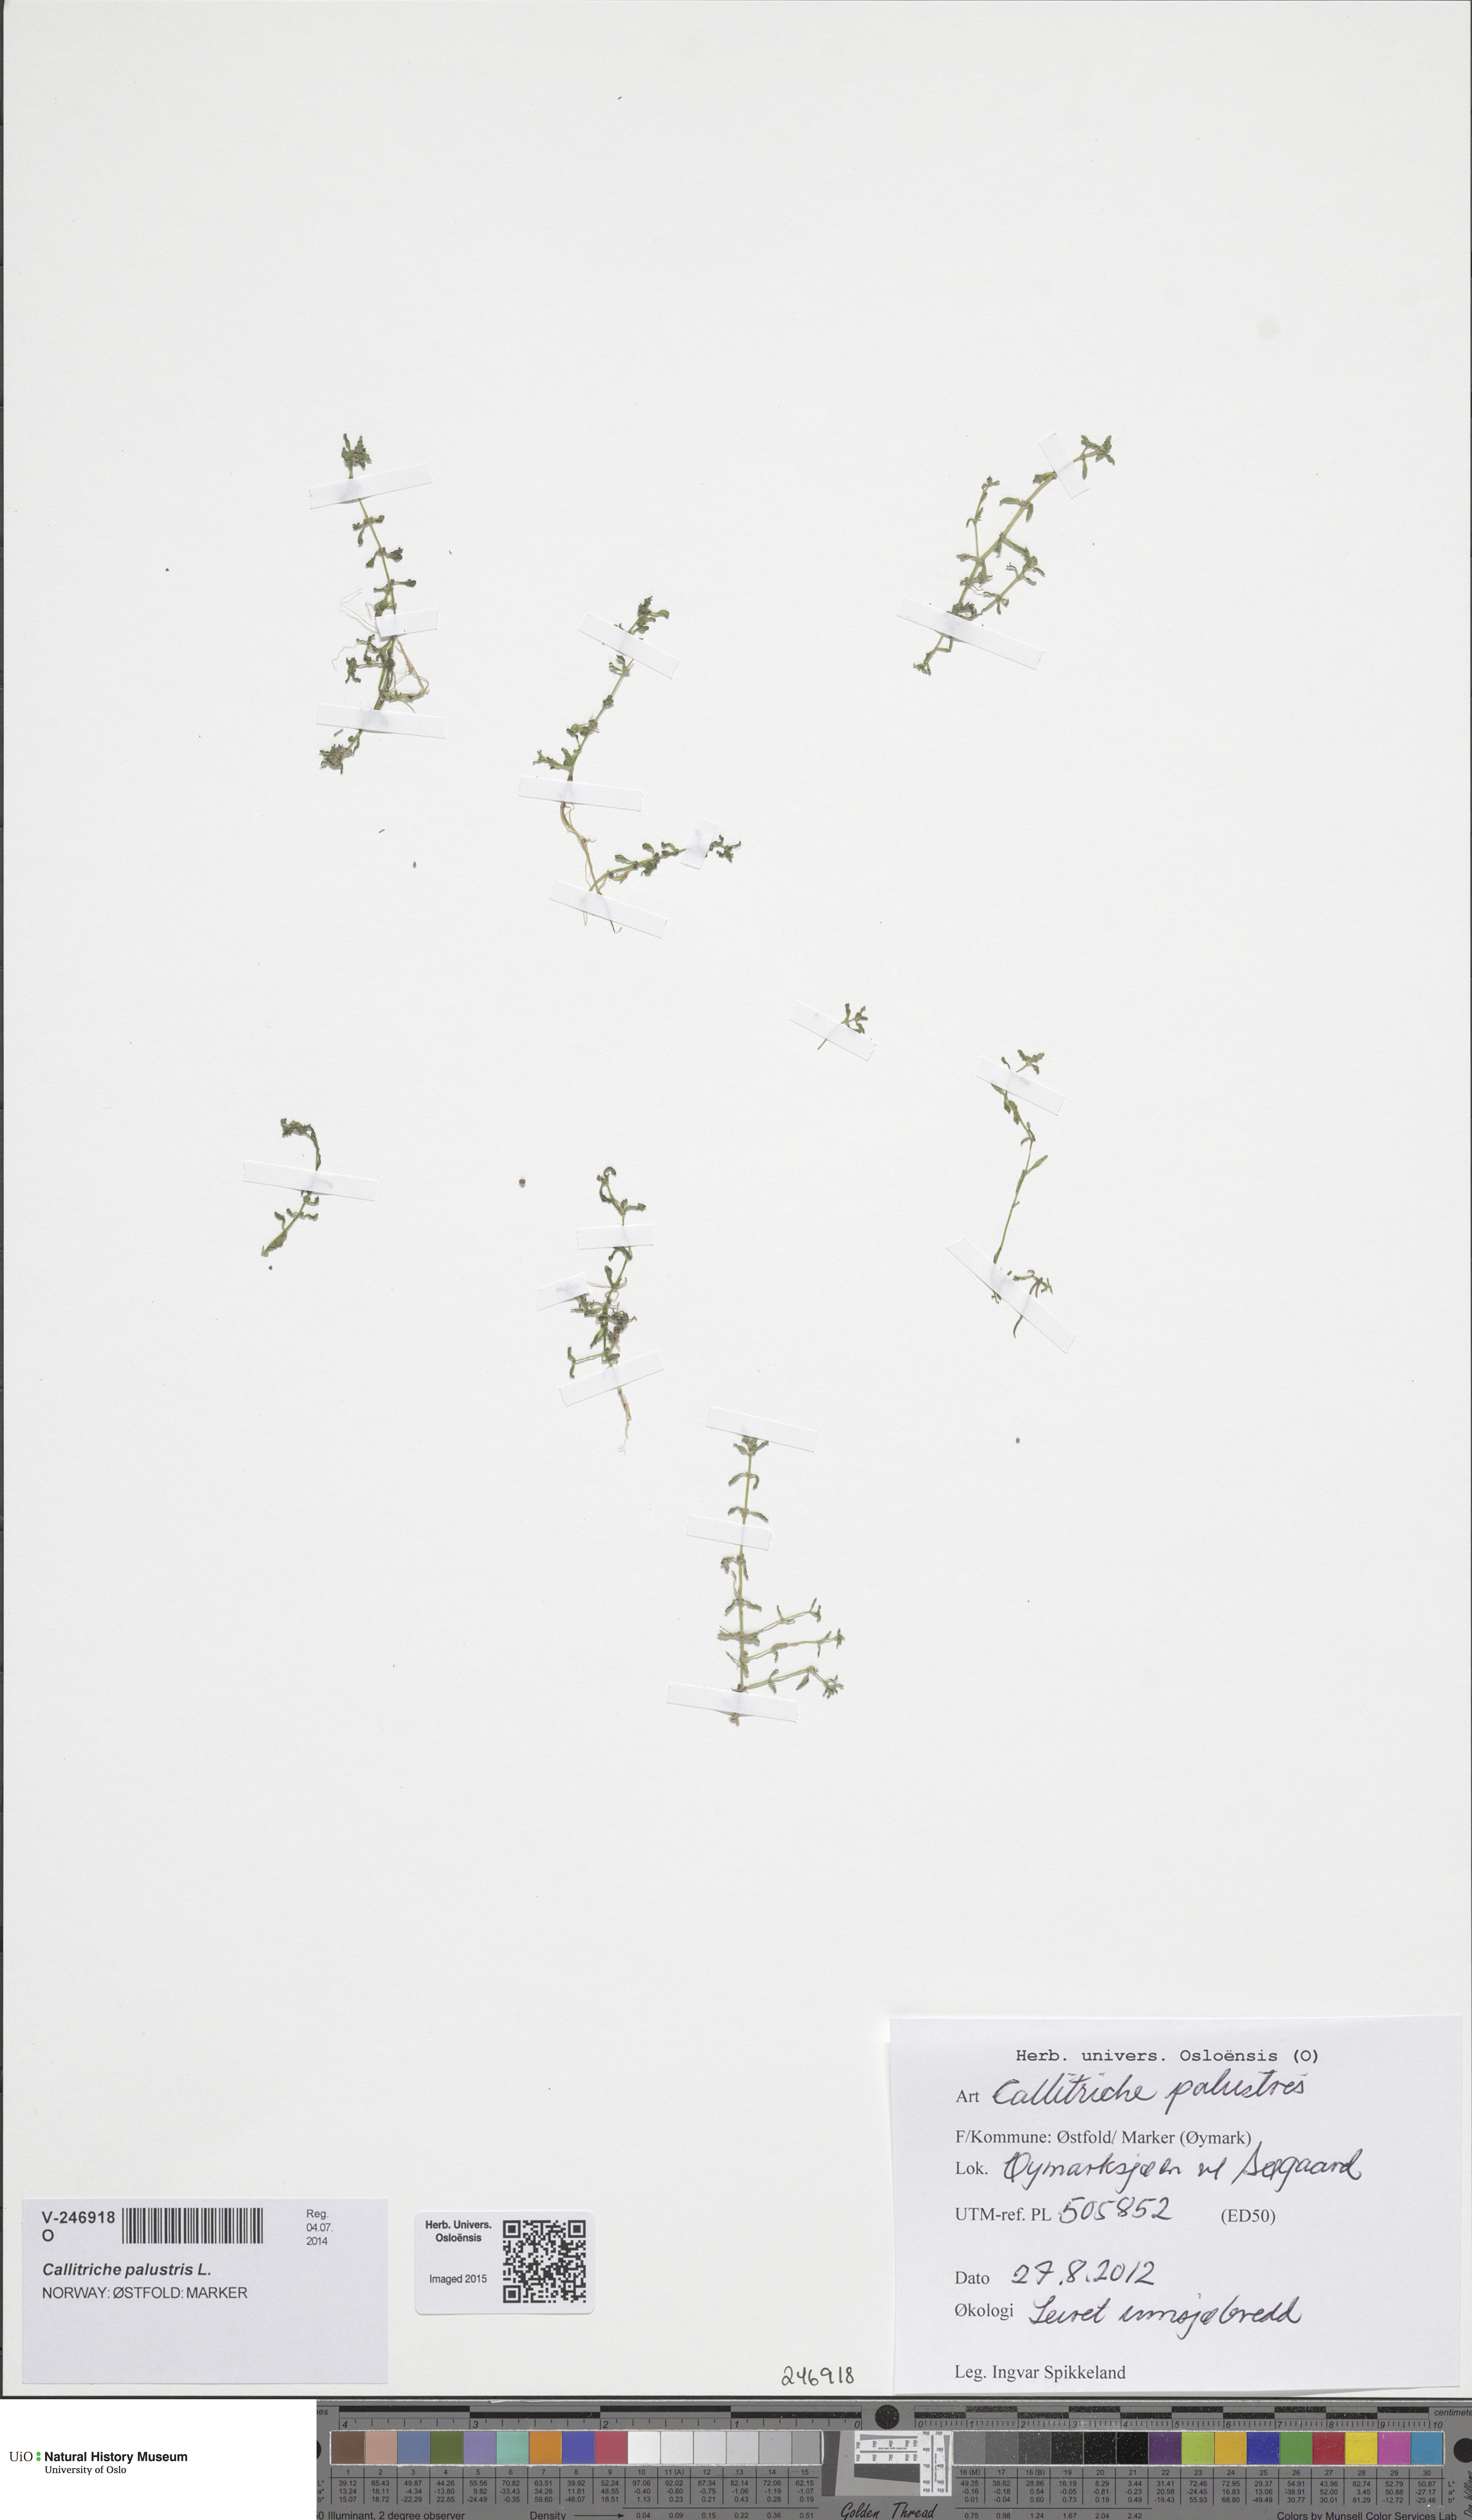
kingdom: Plantae
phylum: Tracheophyta
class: Magnoliopsida
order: Lamiales
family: Plantaginaceae
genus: Callitriche
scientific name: Callitriche palustris
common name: Spring water-starwort
